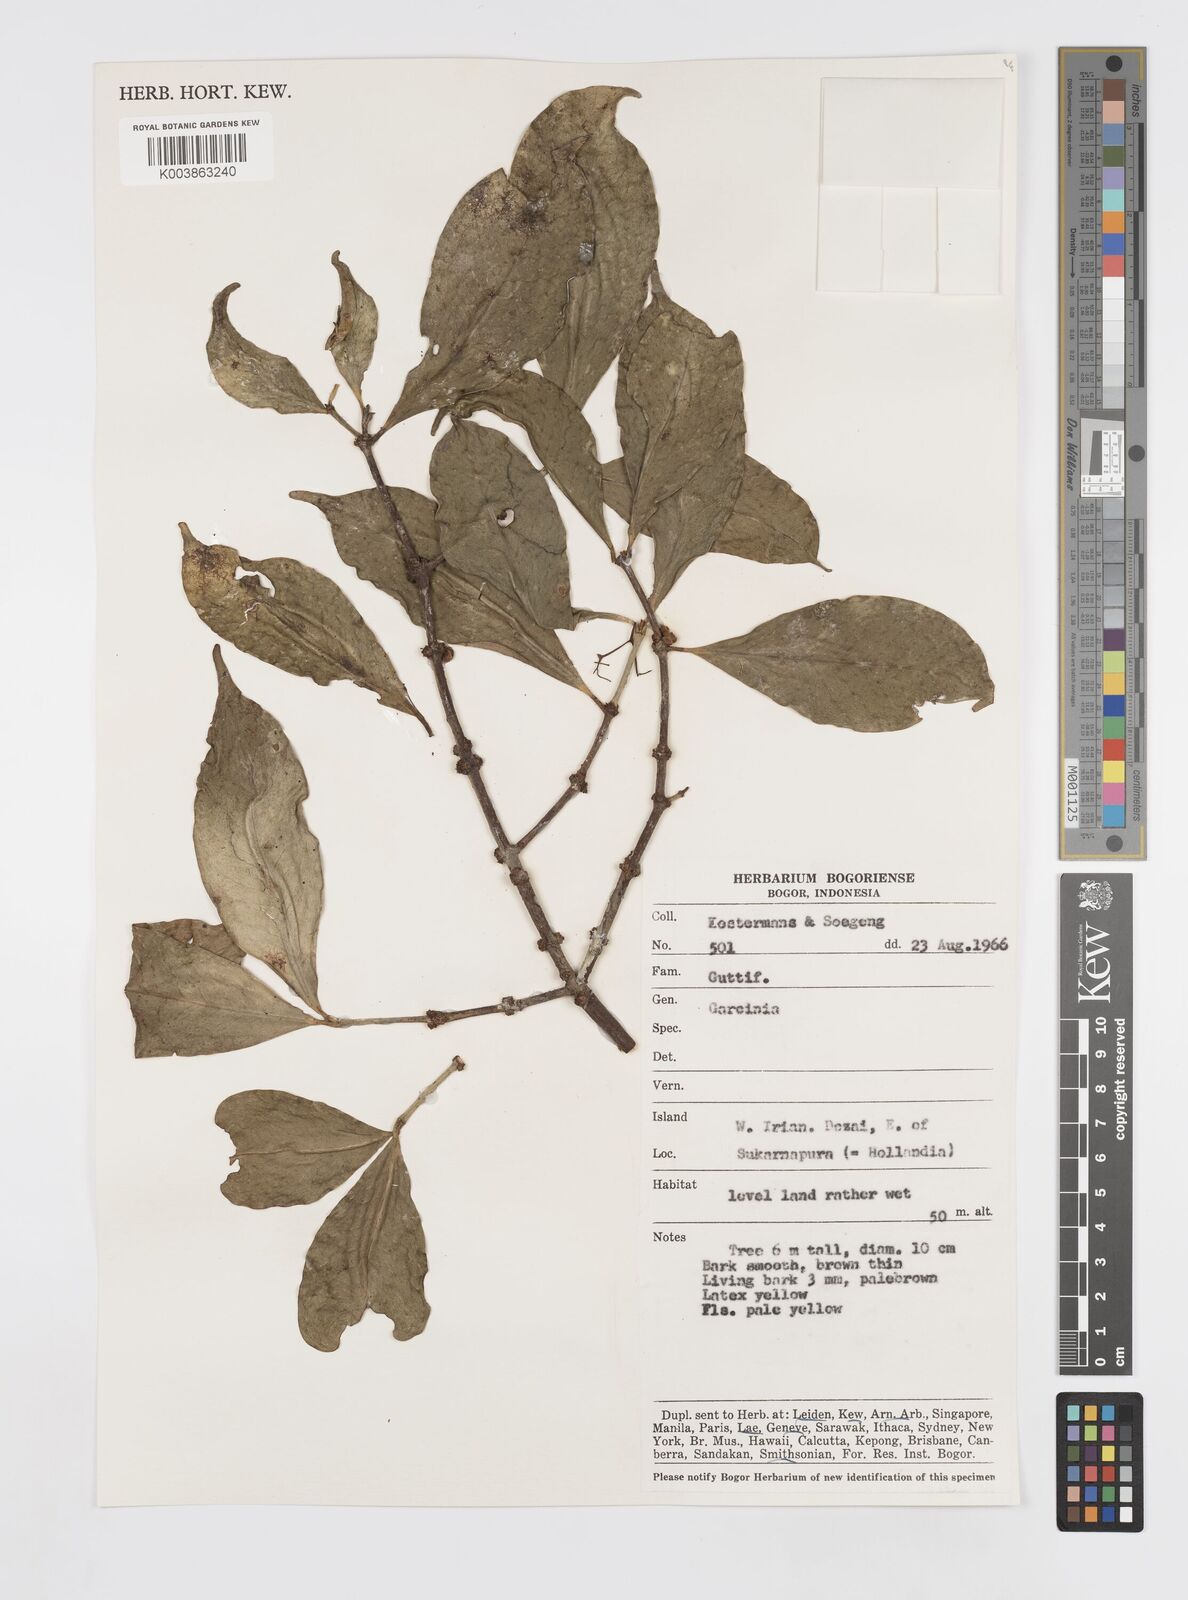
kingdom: Plantae
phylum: Tracheophyta
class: Magnoliopsida
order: Malpighiales
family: Clusiaceae
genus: Garcinia
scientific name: Garcinia
